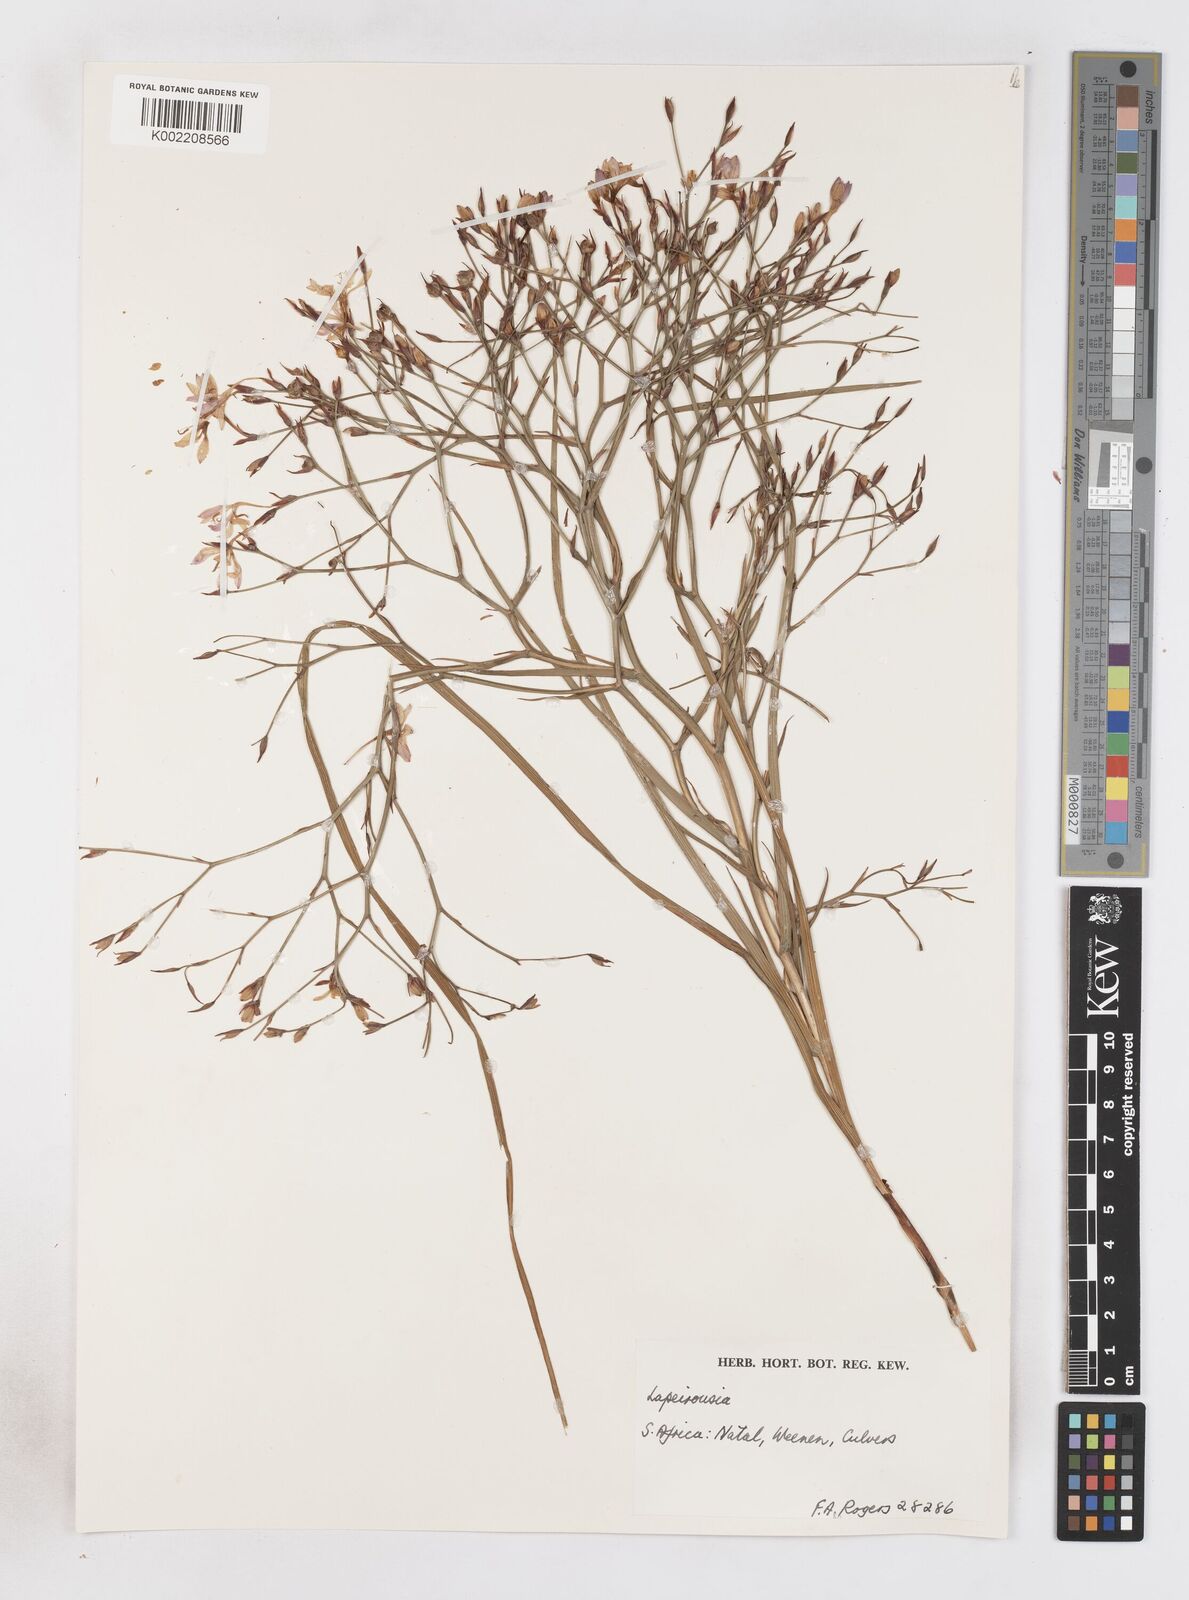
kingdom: Plantae
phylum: Tracheophyta
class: Liliopsida
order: Asparagales
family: Iridaceae
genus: Afrosolen
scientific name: Afrosolen sandersonii
